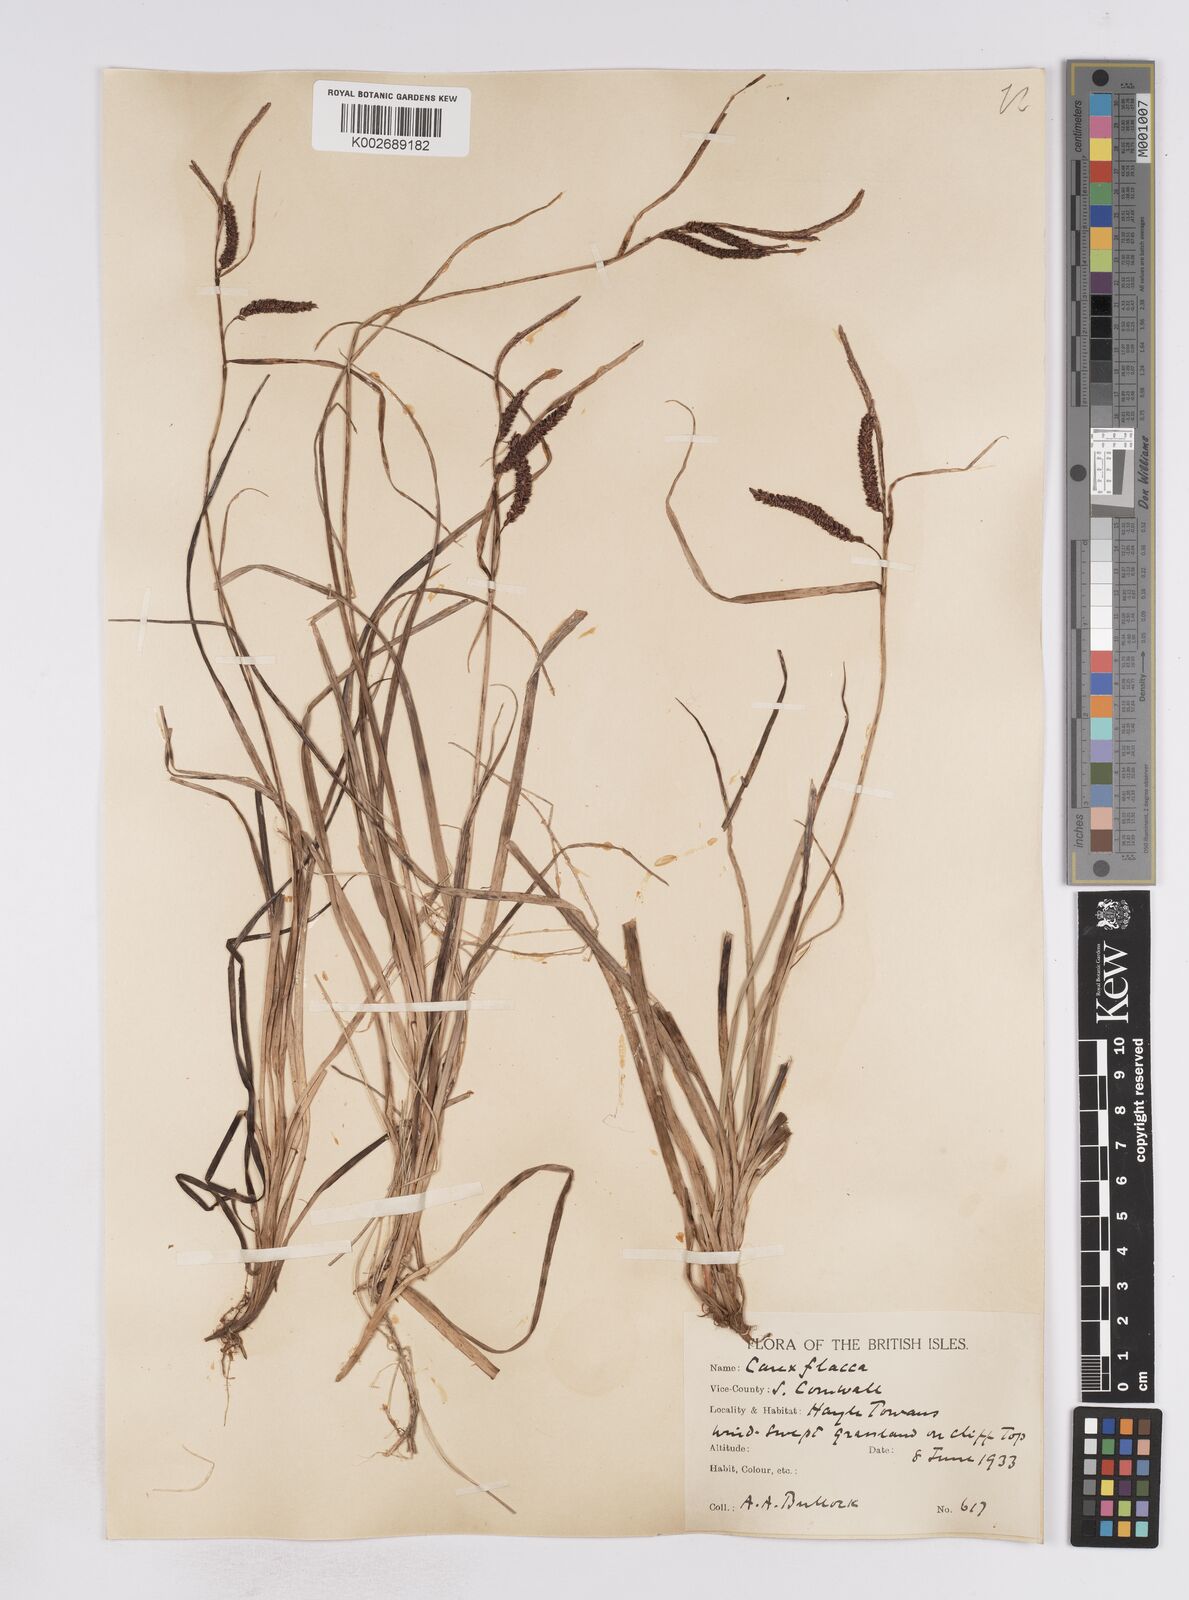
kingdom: Plantae
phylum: Tracheophyta
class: Liliopsida
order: Poales
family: Cyperaceae
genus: Carex
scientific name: Carex flacca
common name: Glaucous sedge
